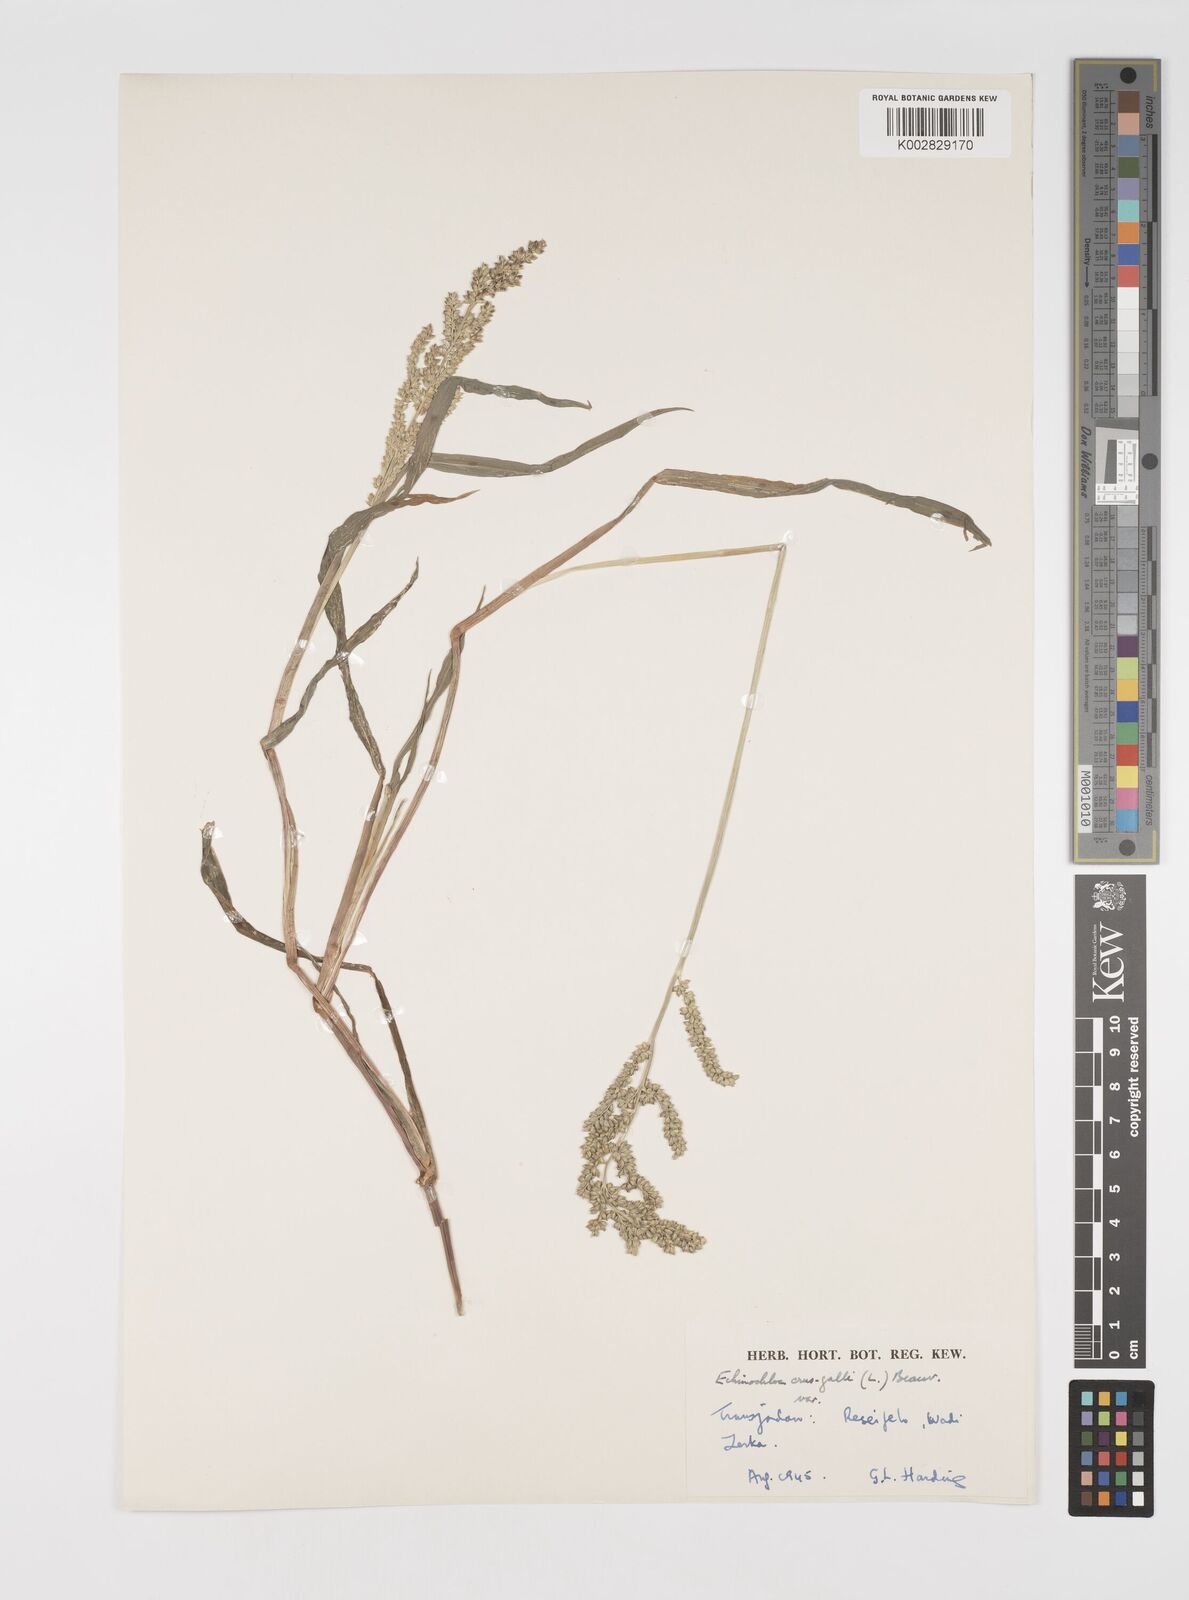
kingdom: Plantae
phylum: Tracheophyta
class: Liliopsida
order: Poales
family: Poaceae
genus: Echinochloa
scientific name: Echinochloa crus-galli
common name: Cockspur
